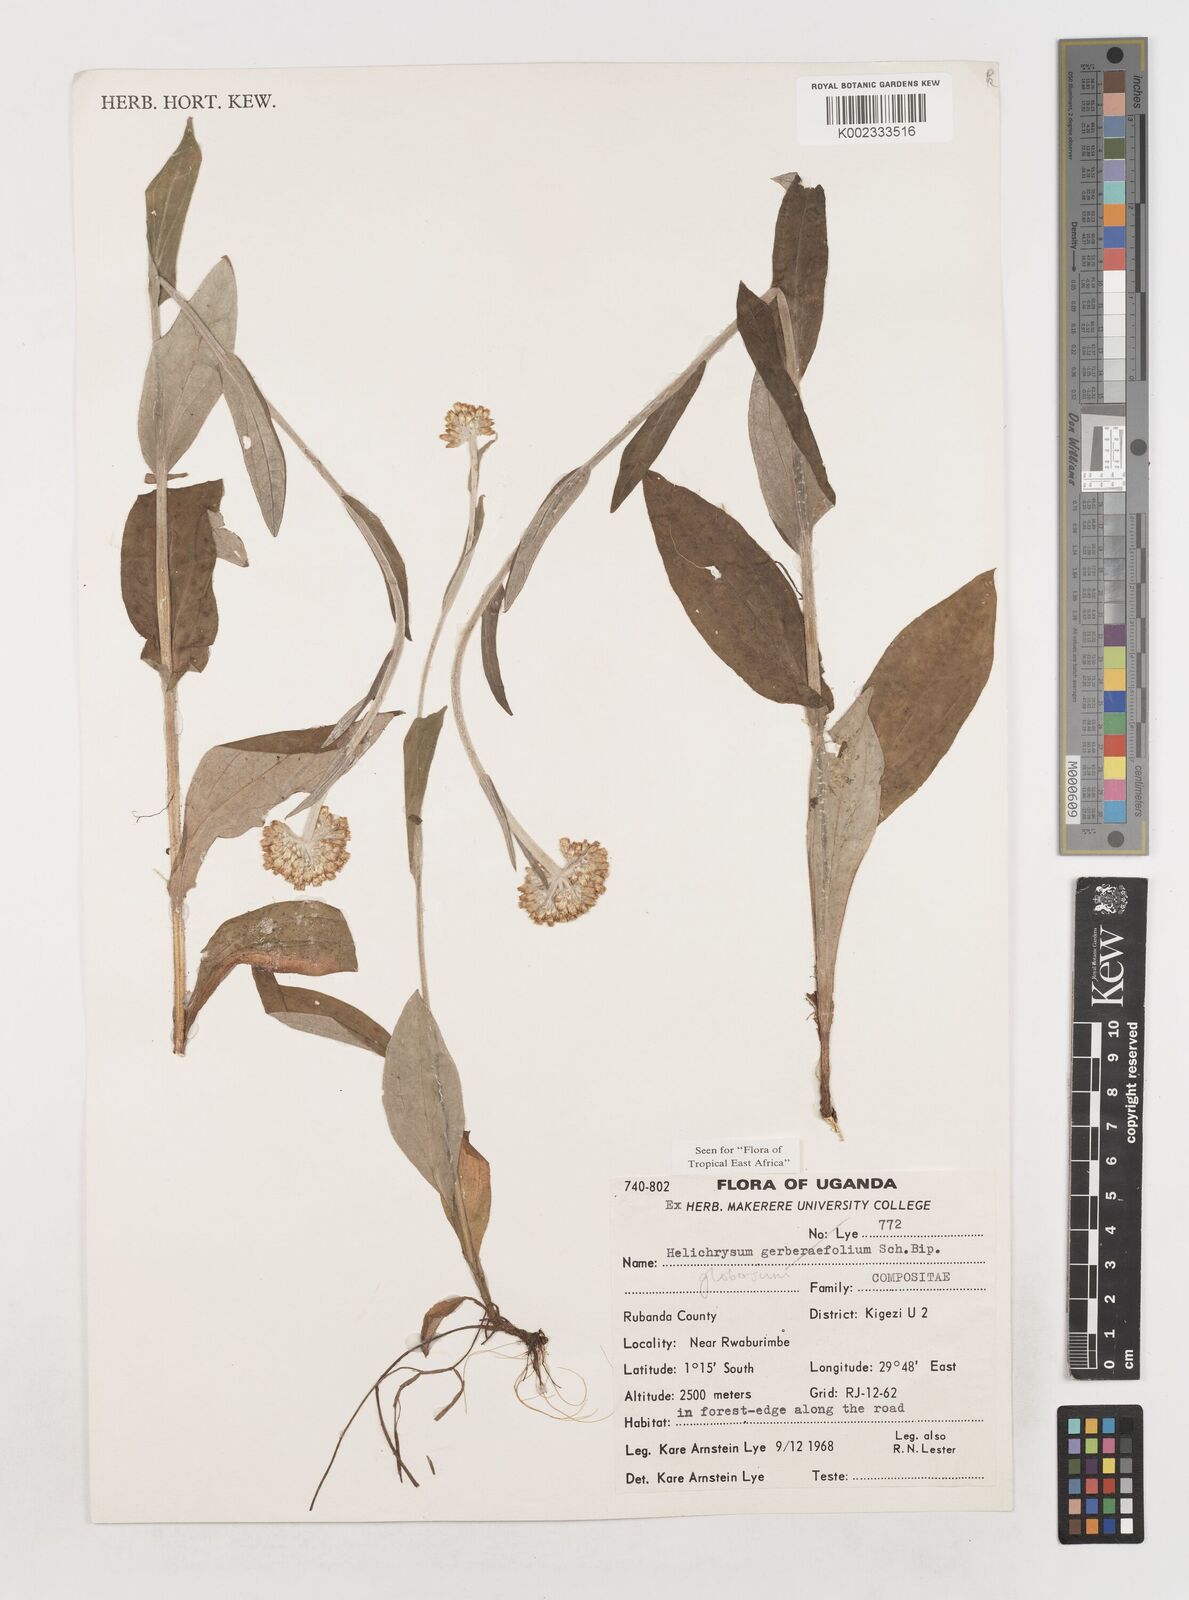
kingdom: Plantae
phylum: Tracheophyta
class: Magnoliopsida
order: Asterales
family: Asteraceae
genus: Helichrysum
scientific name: Helichrysum globosum
